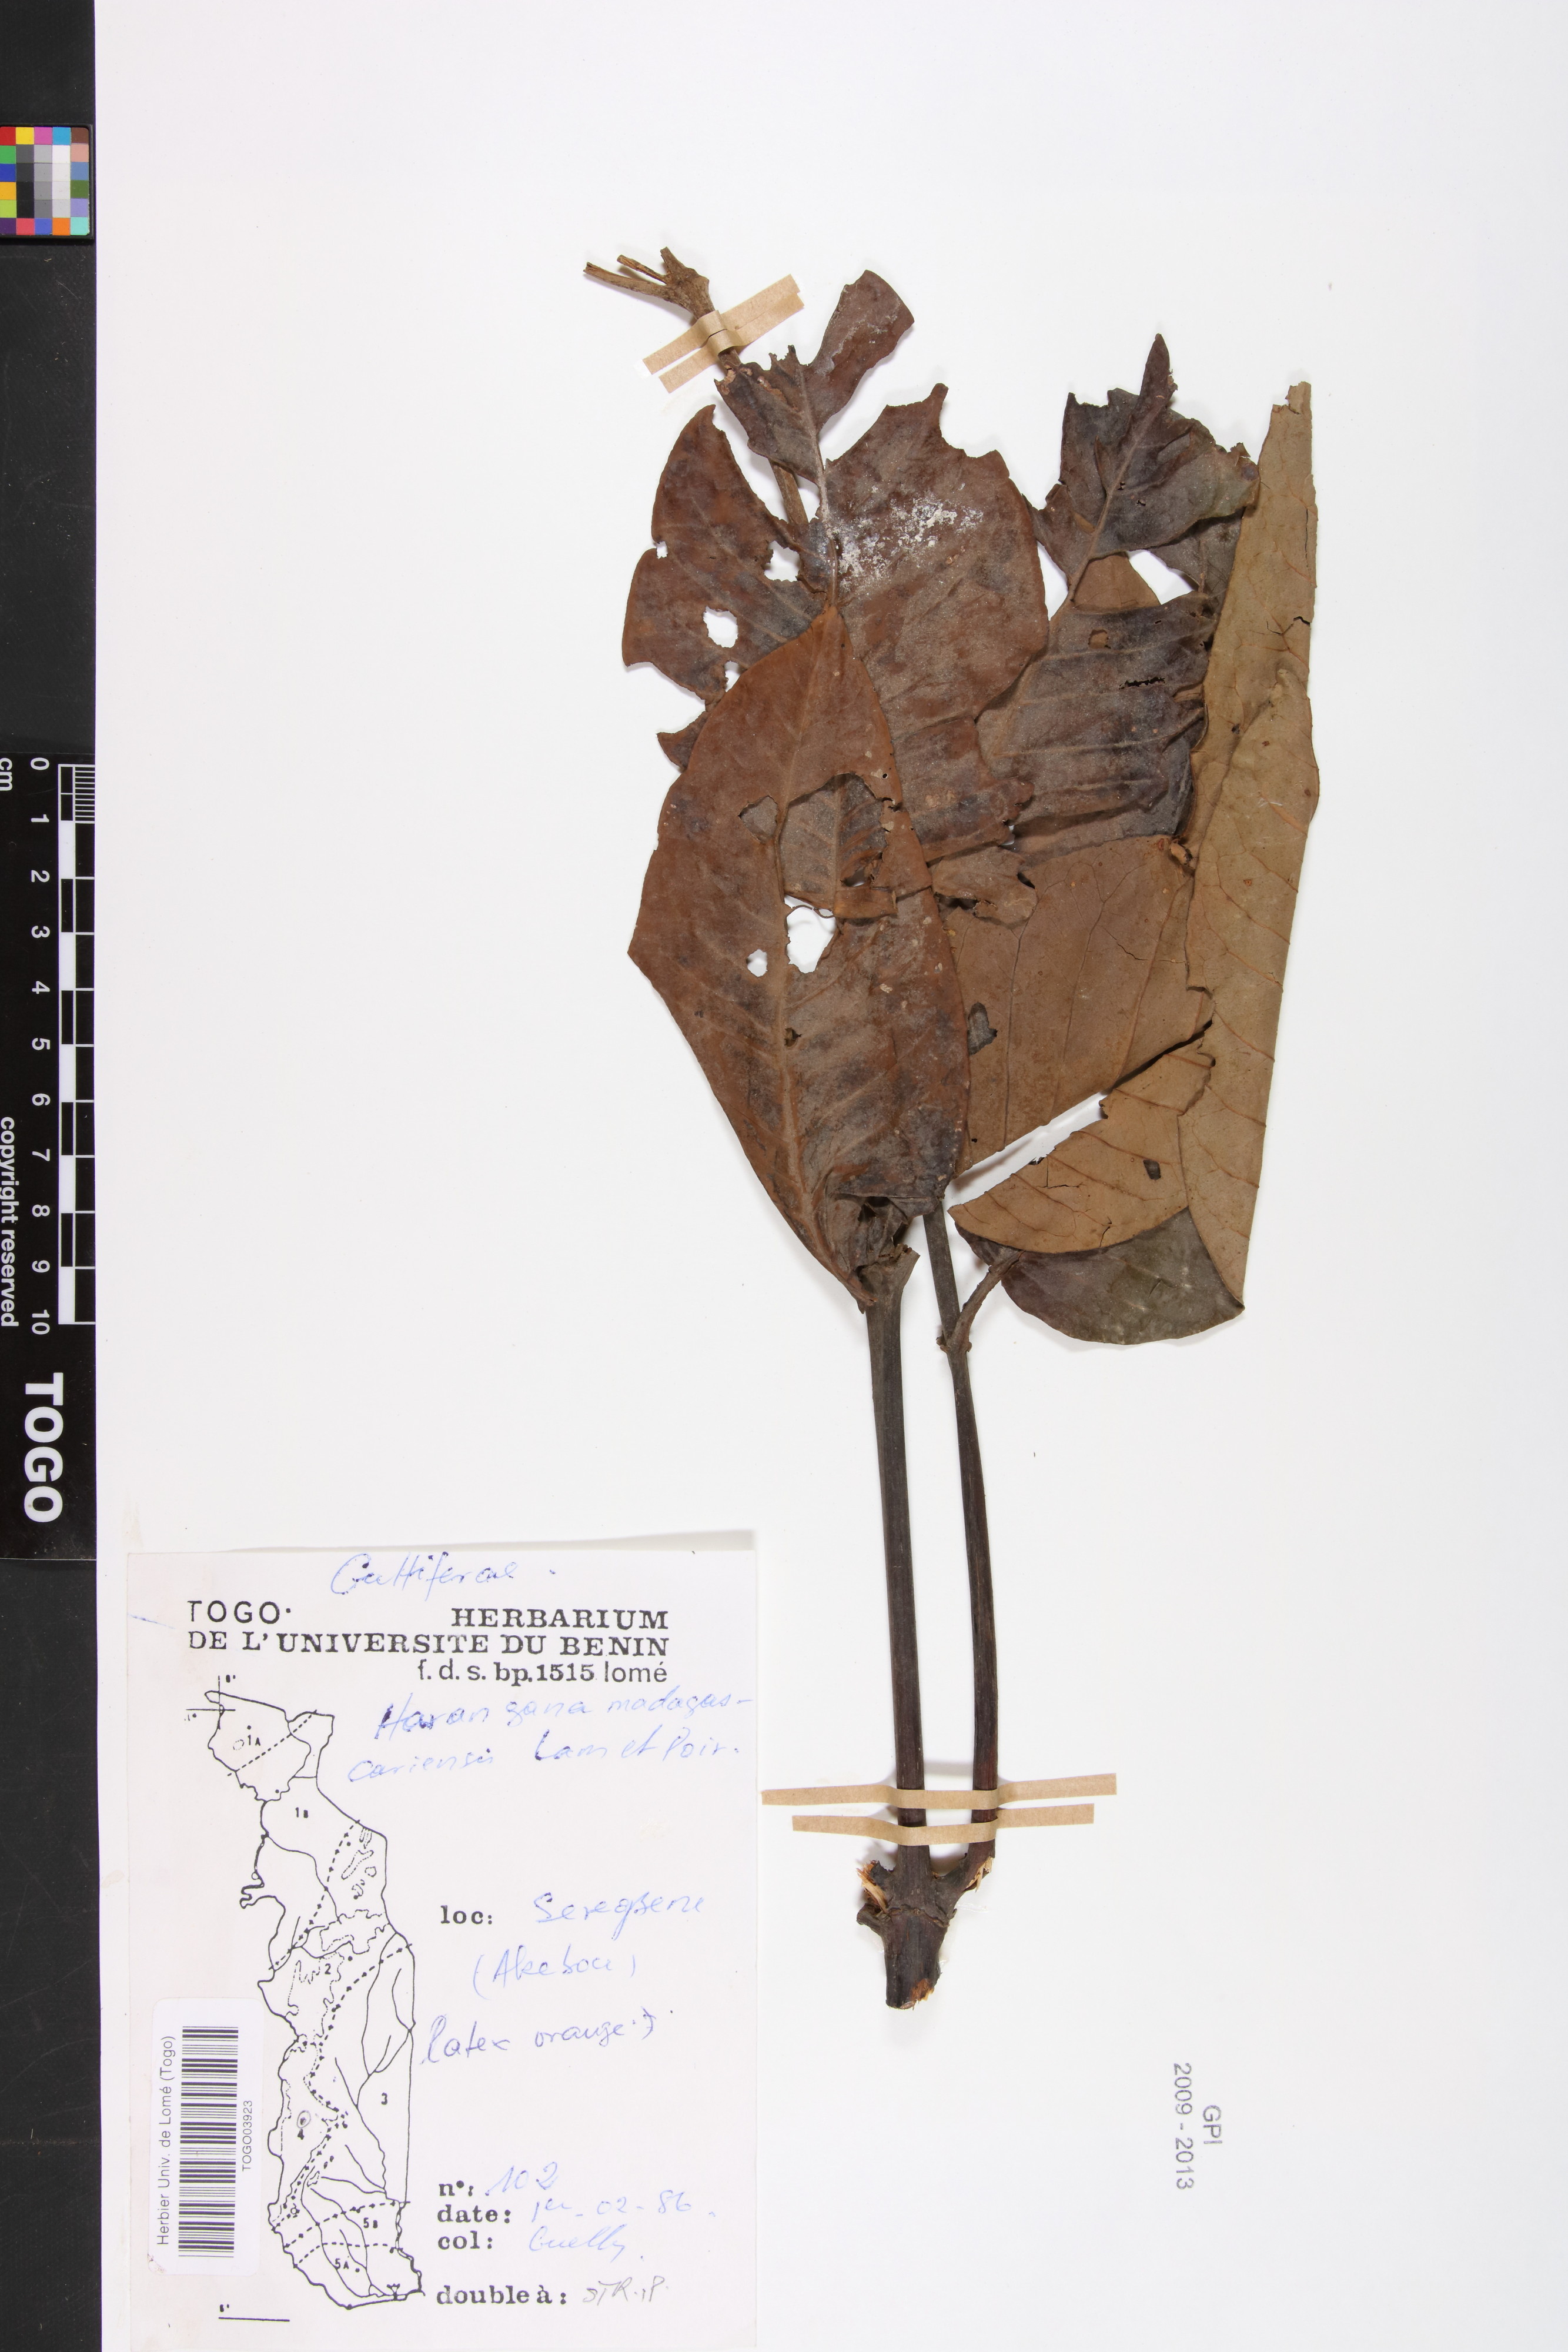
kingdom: Plantae
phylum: Tracheophyta
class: Magnoliopsida
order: Malpighiales
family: Hypericaceae
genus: Harungana
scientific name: Harungana madagascariensis
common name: Orange milktree
